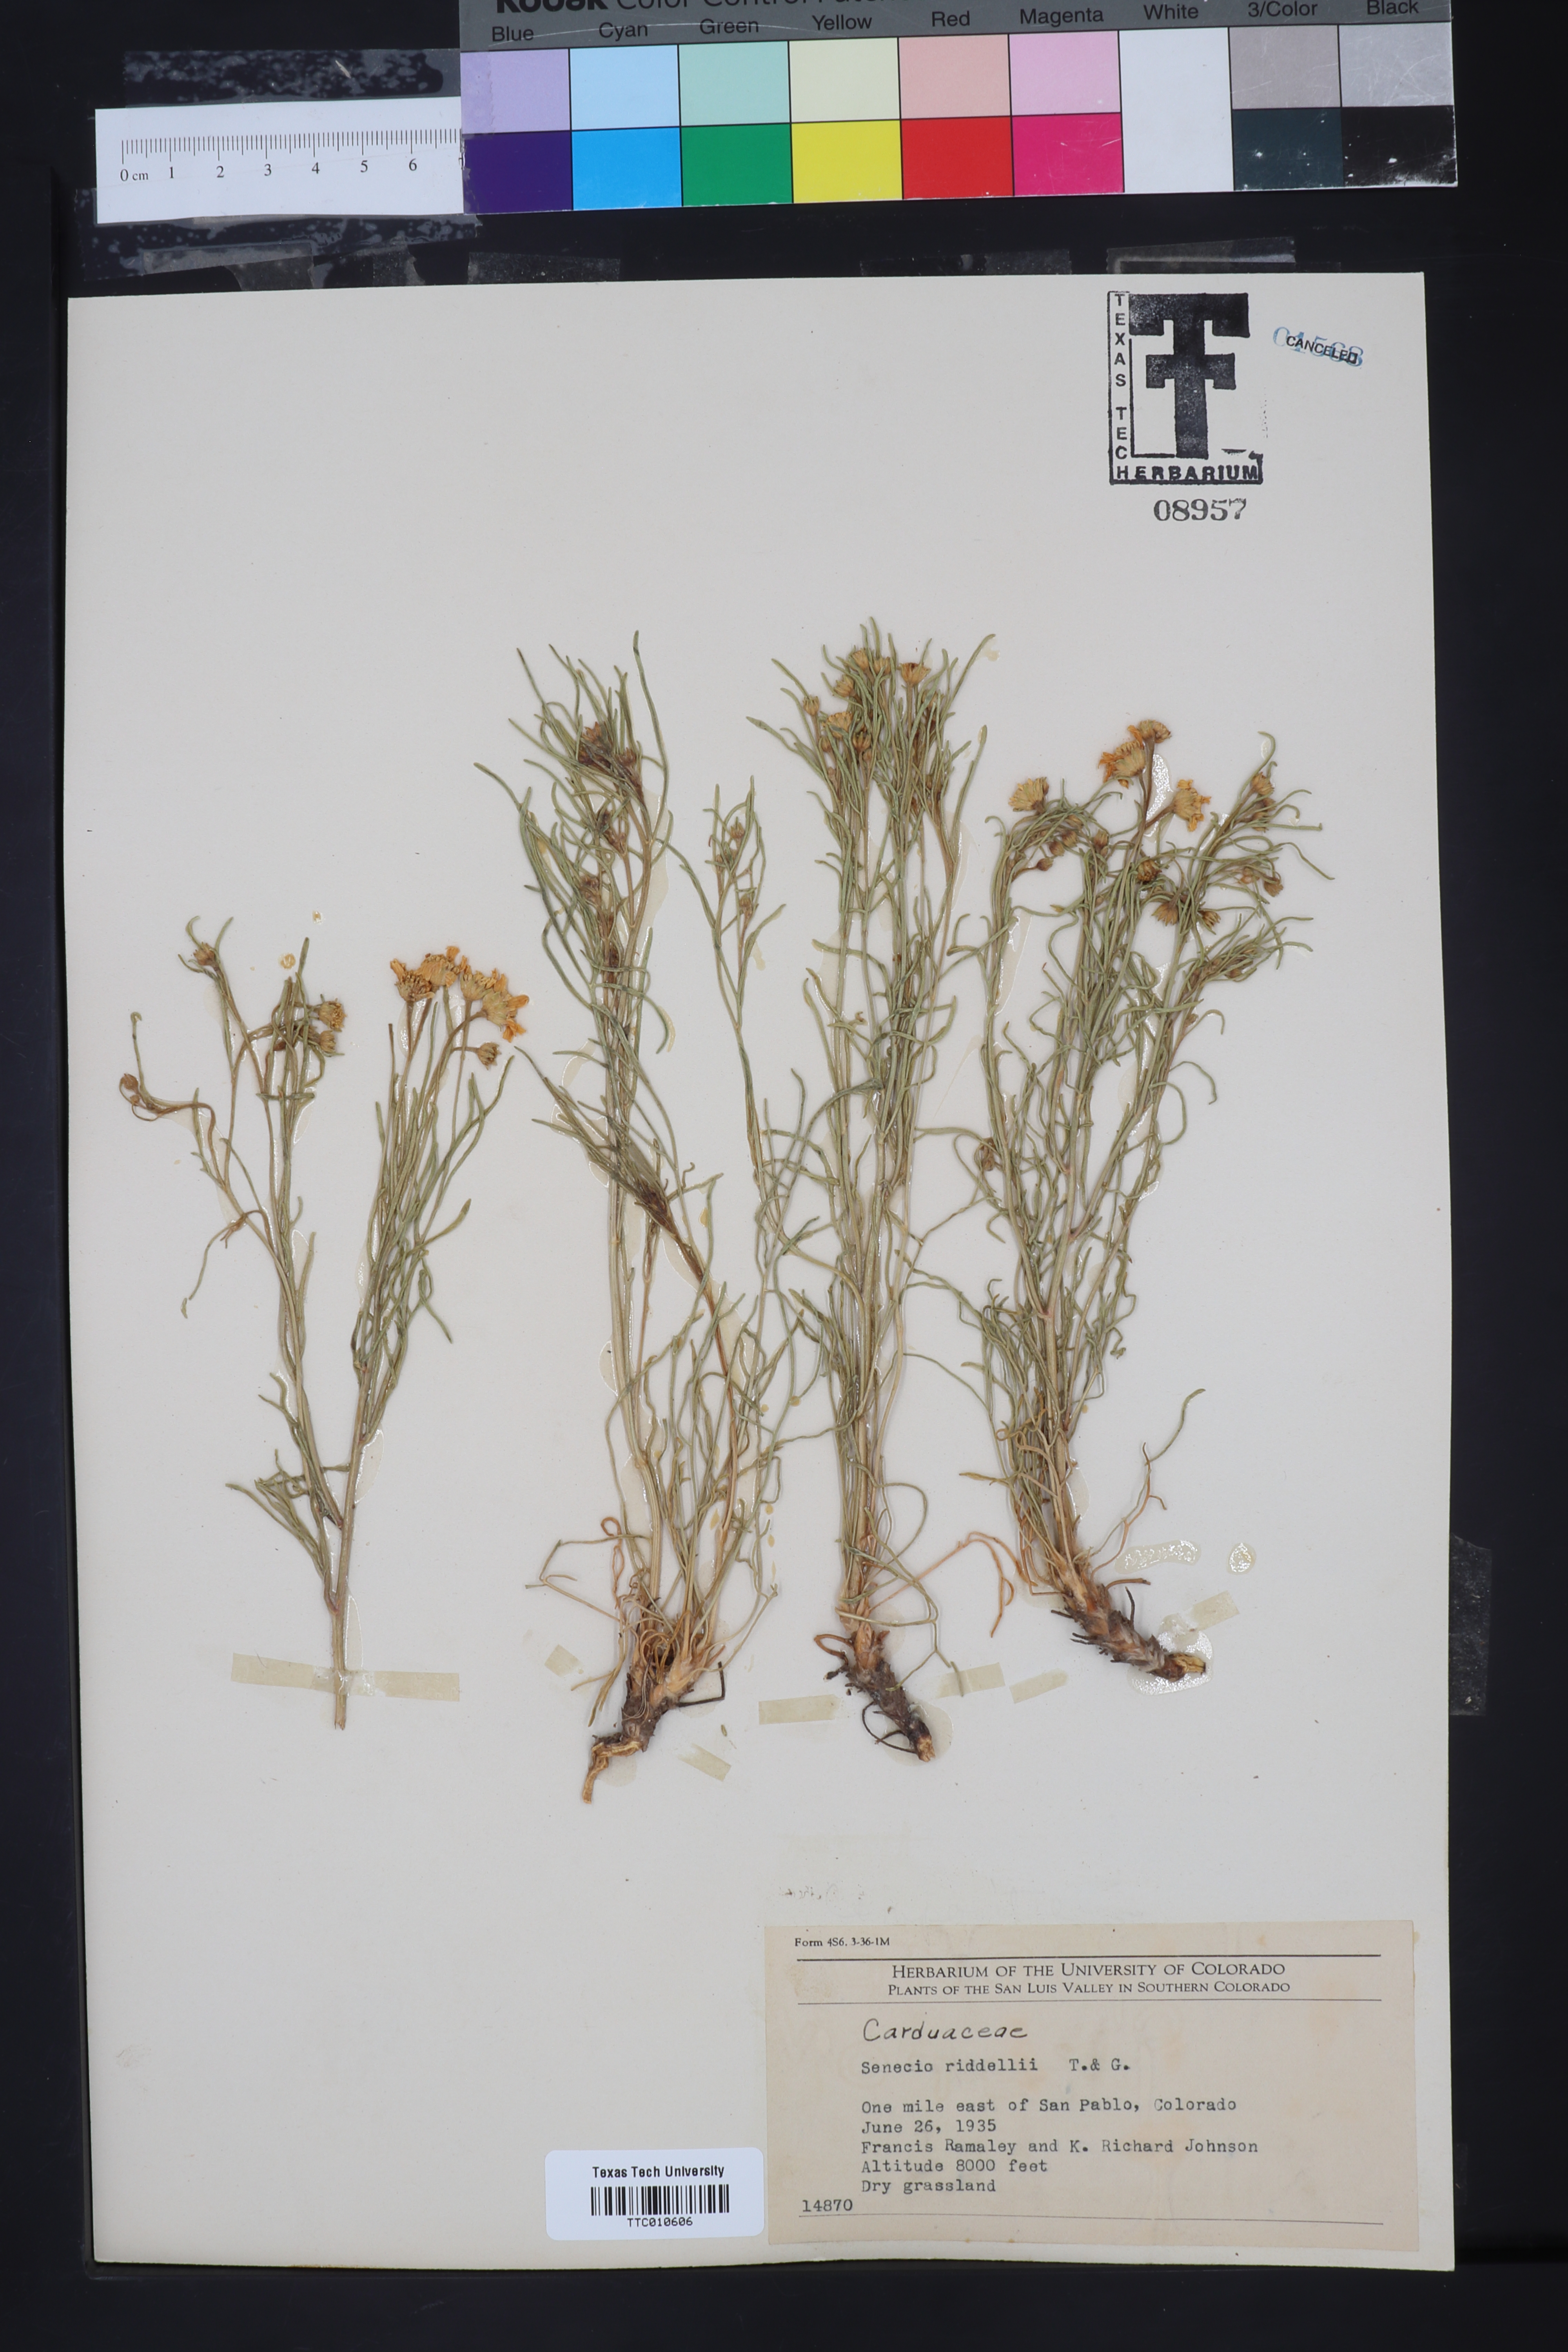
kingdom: Plantae
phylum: Tracheophyta
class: Magnoliopsida
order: Asterales
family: Asteraceae
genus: Senecio
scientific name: Senecio riddellii
